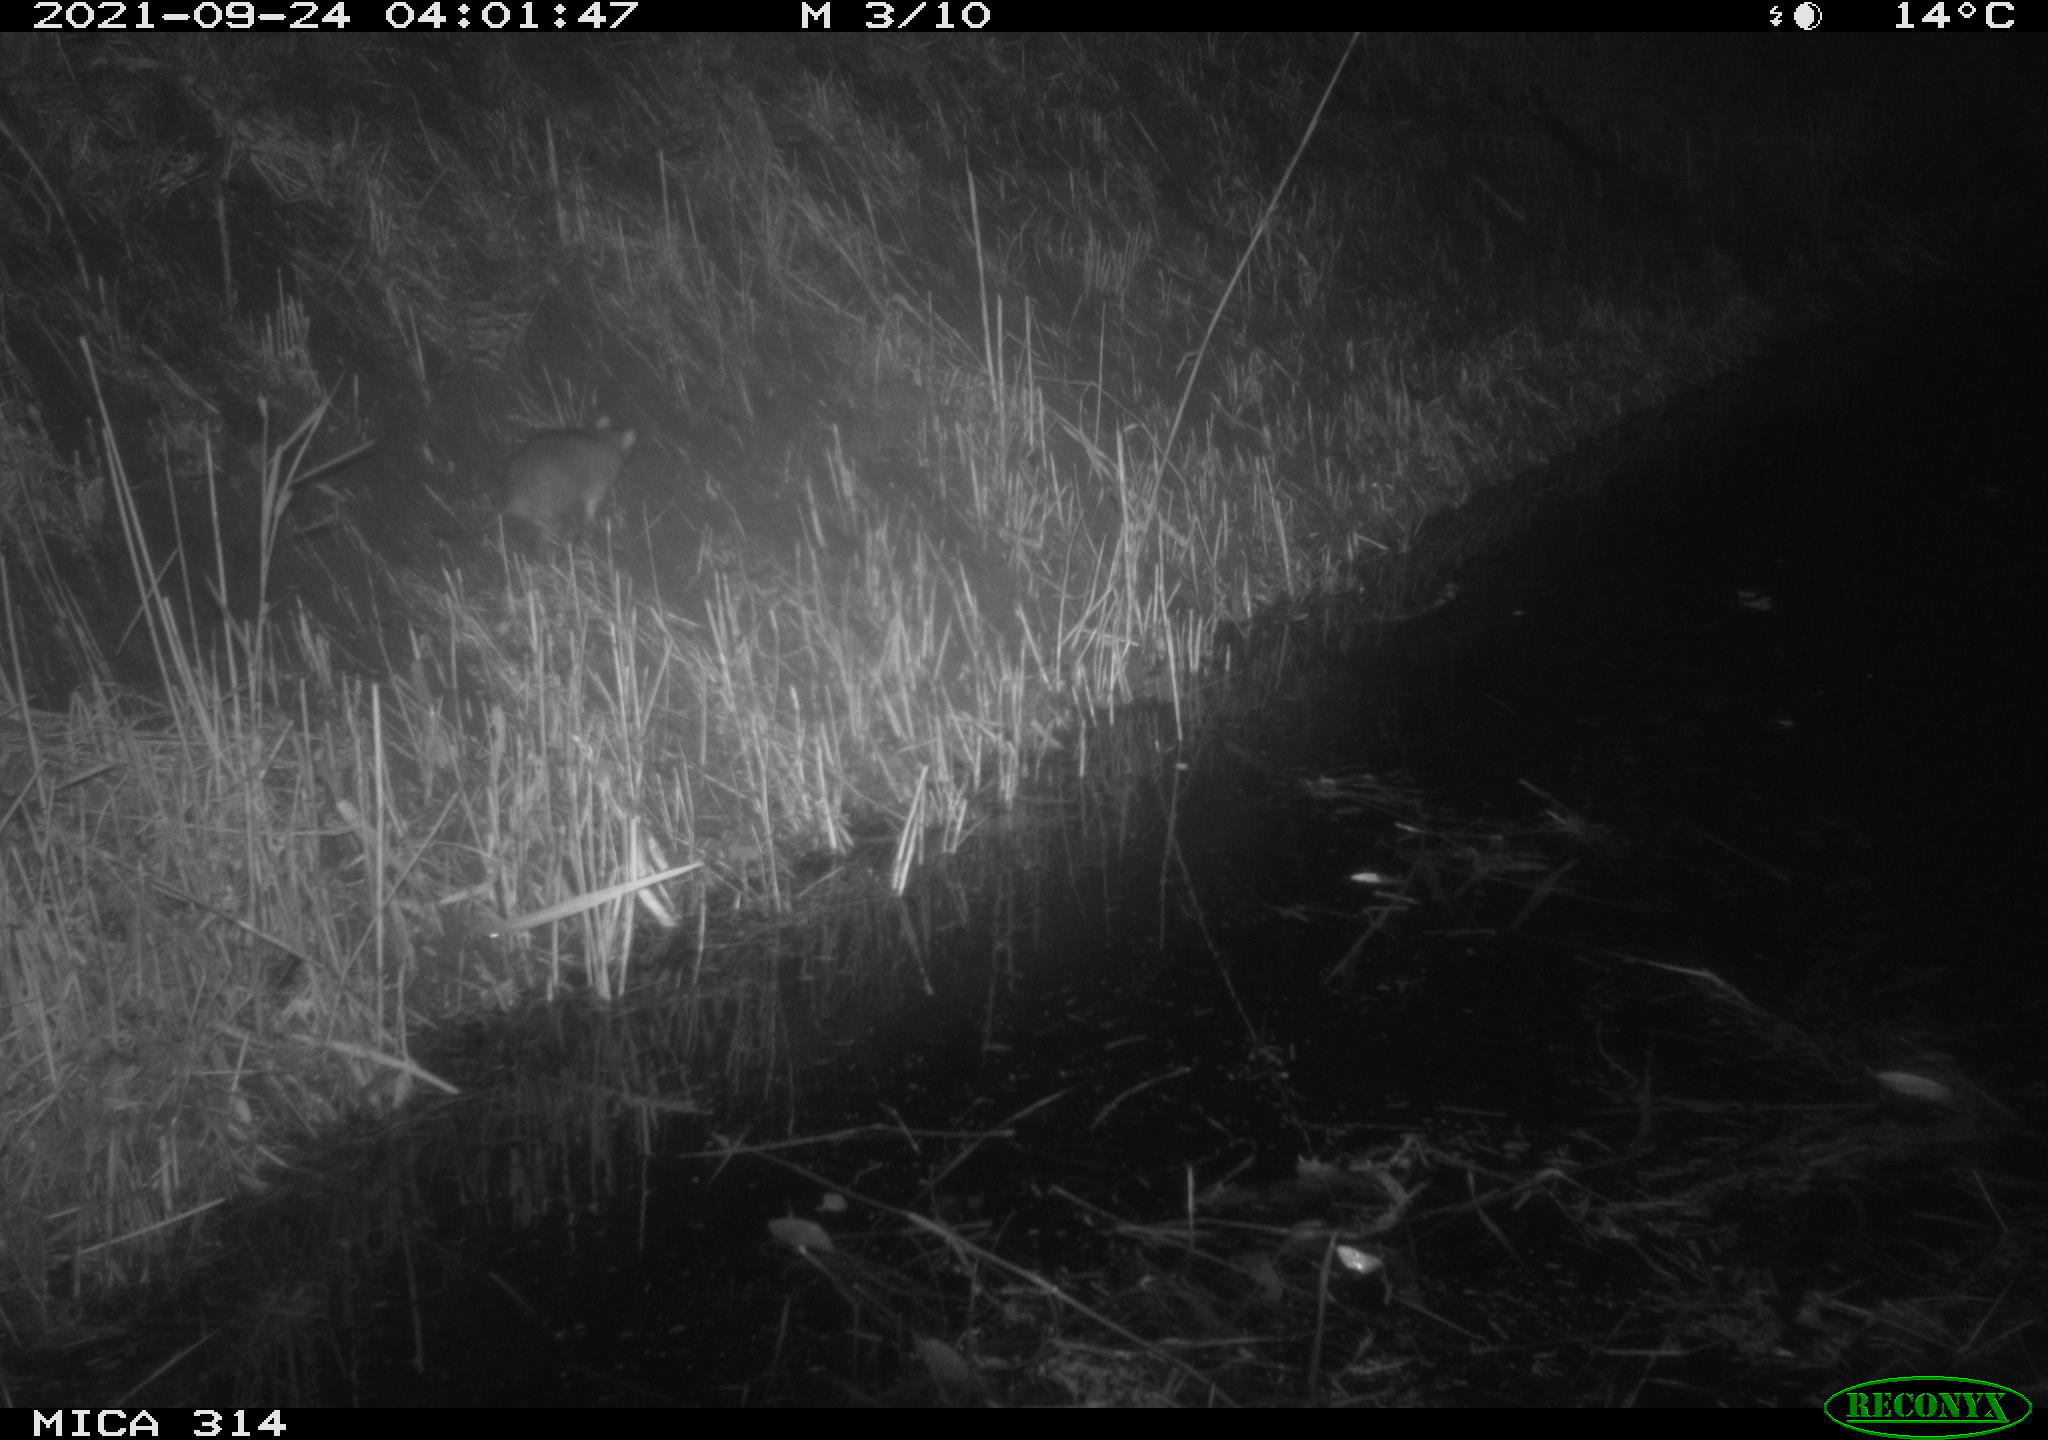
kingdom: Animalia
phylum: Chordata
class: Mammalia
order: Rodentia
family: Muridae
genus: Rattus
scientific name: Rattus norvegicus
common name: Brown rat
